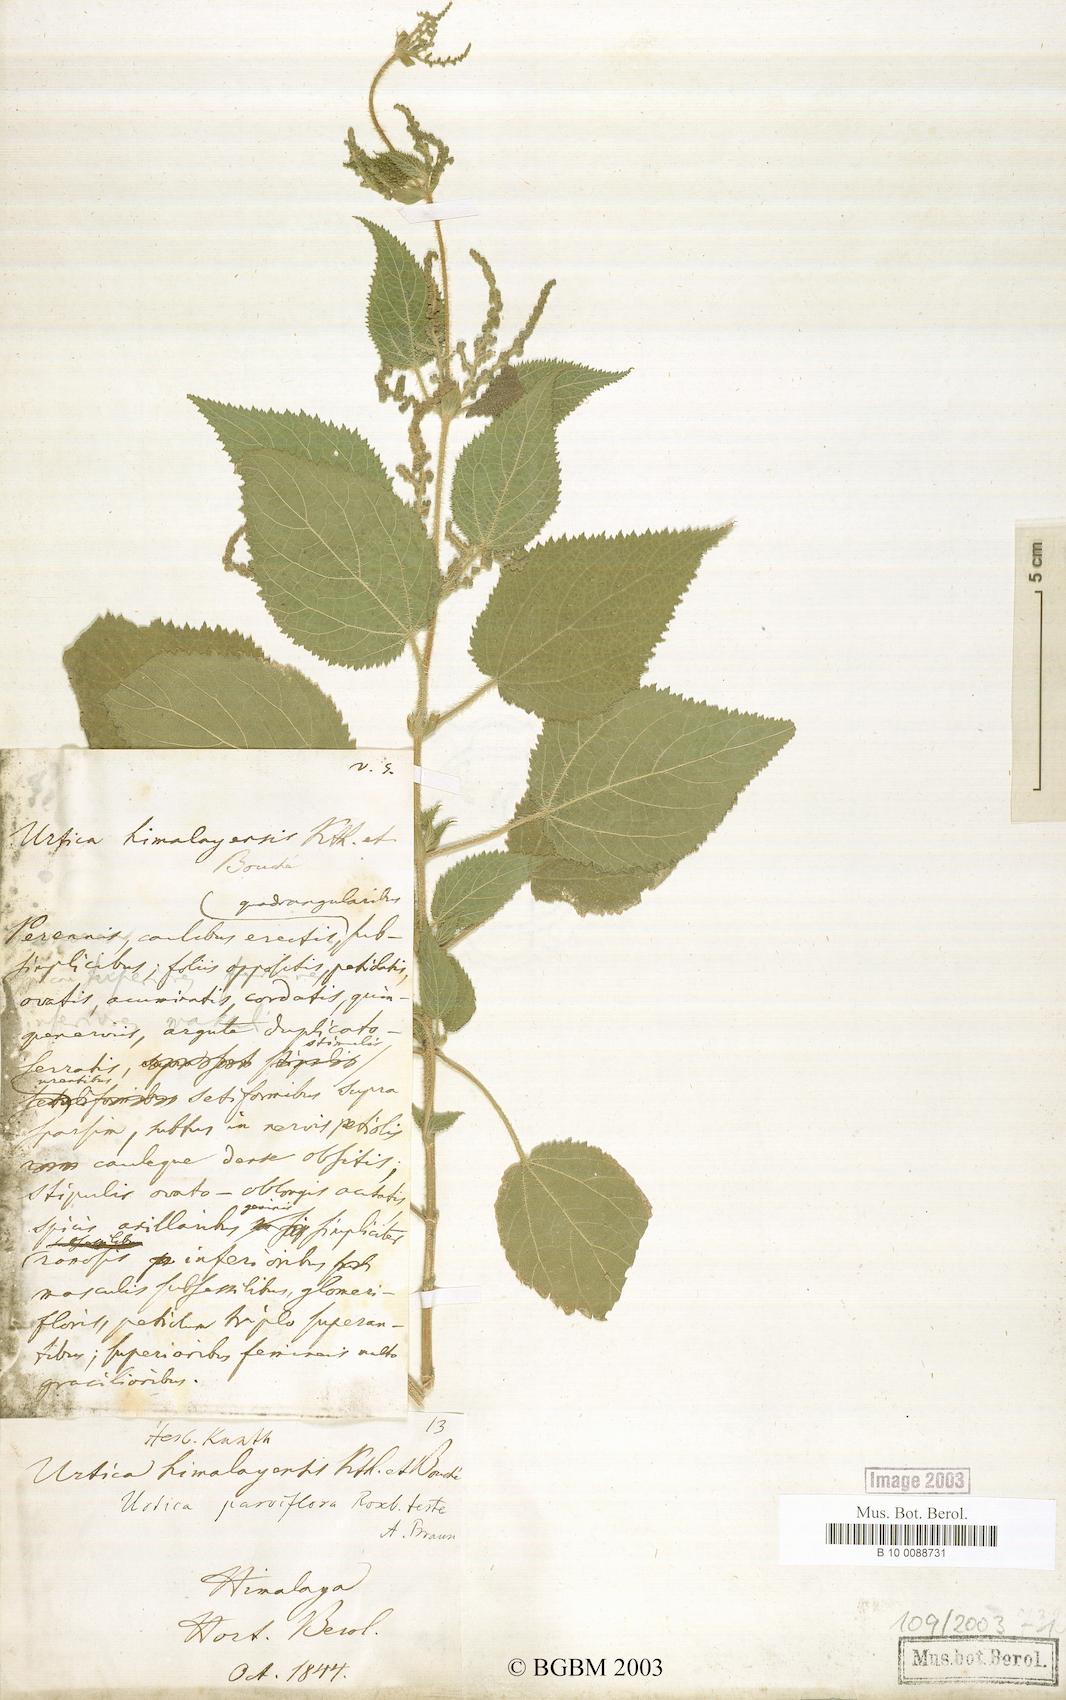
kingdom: Plantae
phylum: Tracheophyta
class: Magnoliopsida
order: Rosales
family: Urticaceae
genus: Urtica
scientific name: Urtica ardens
